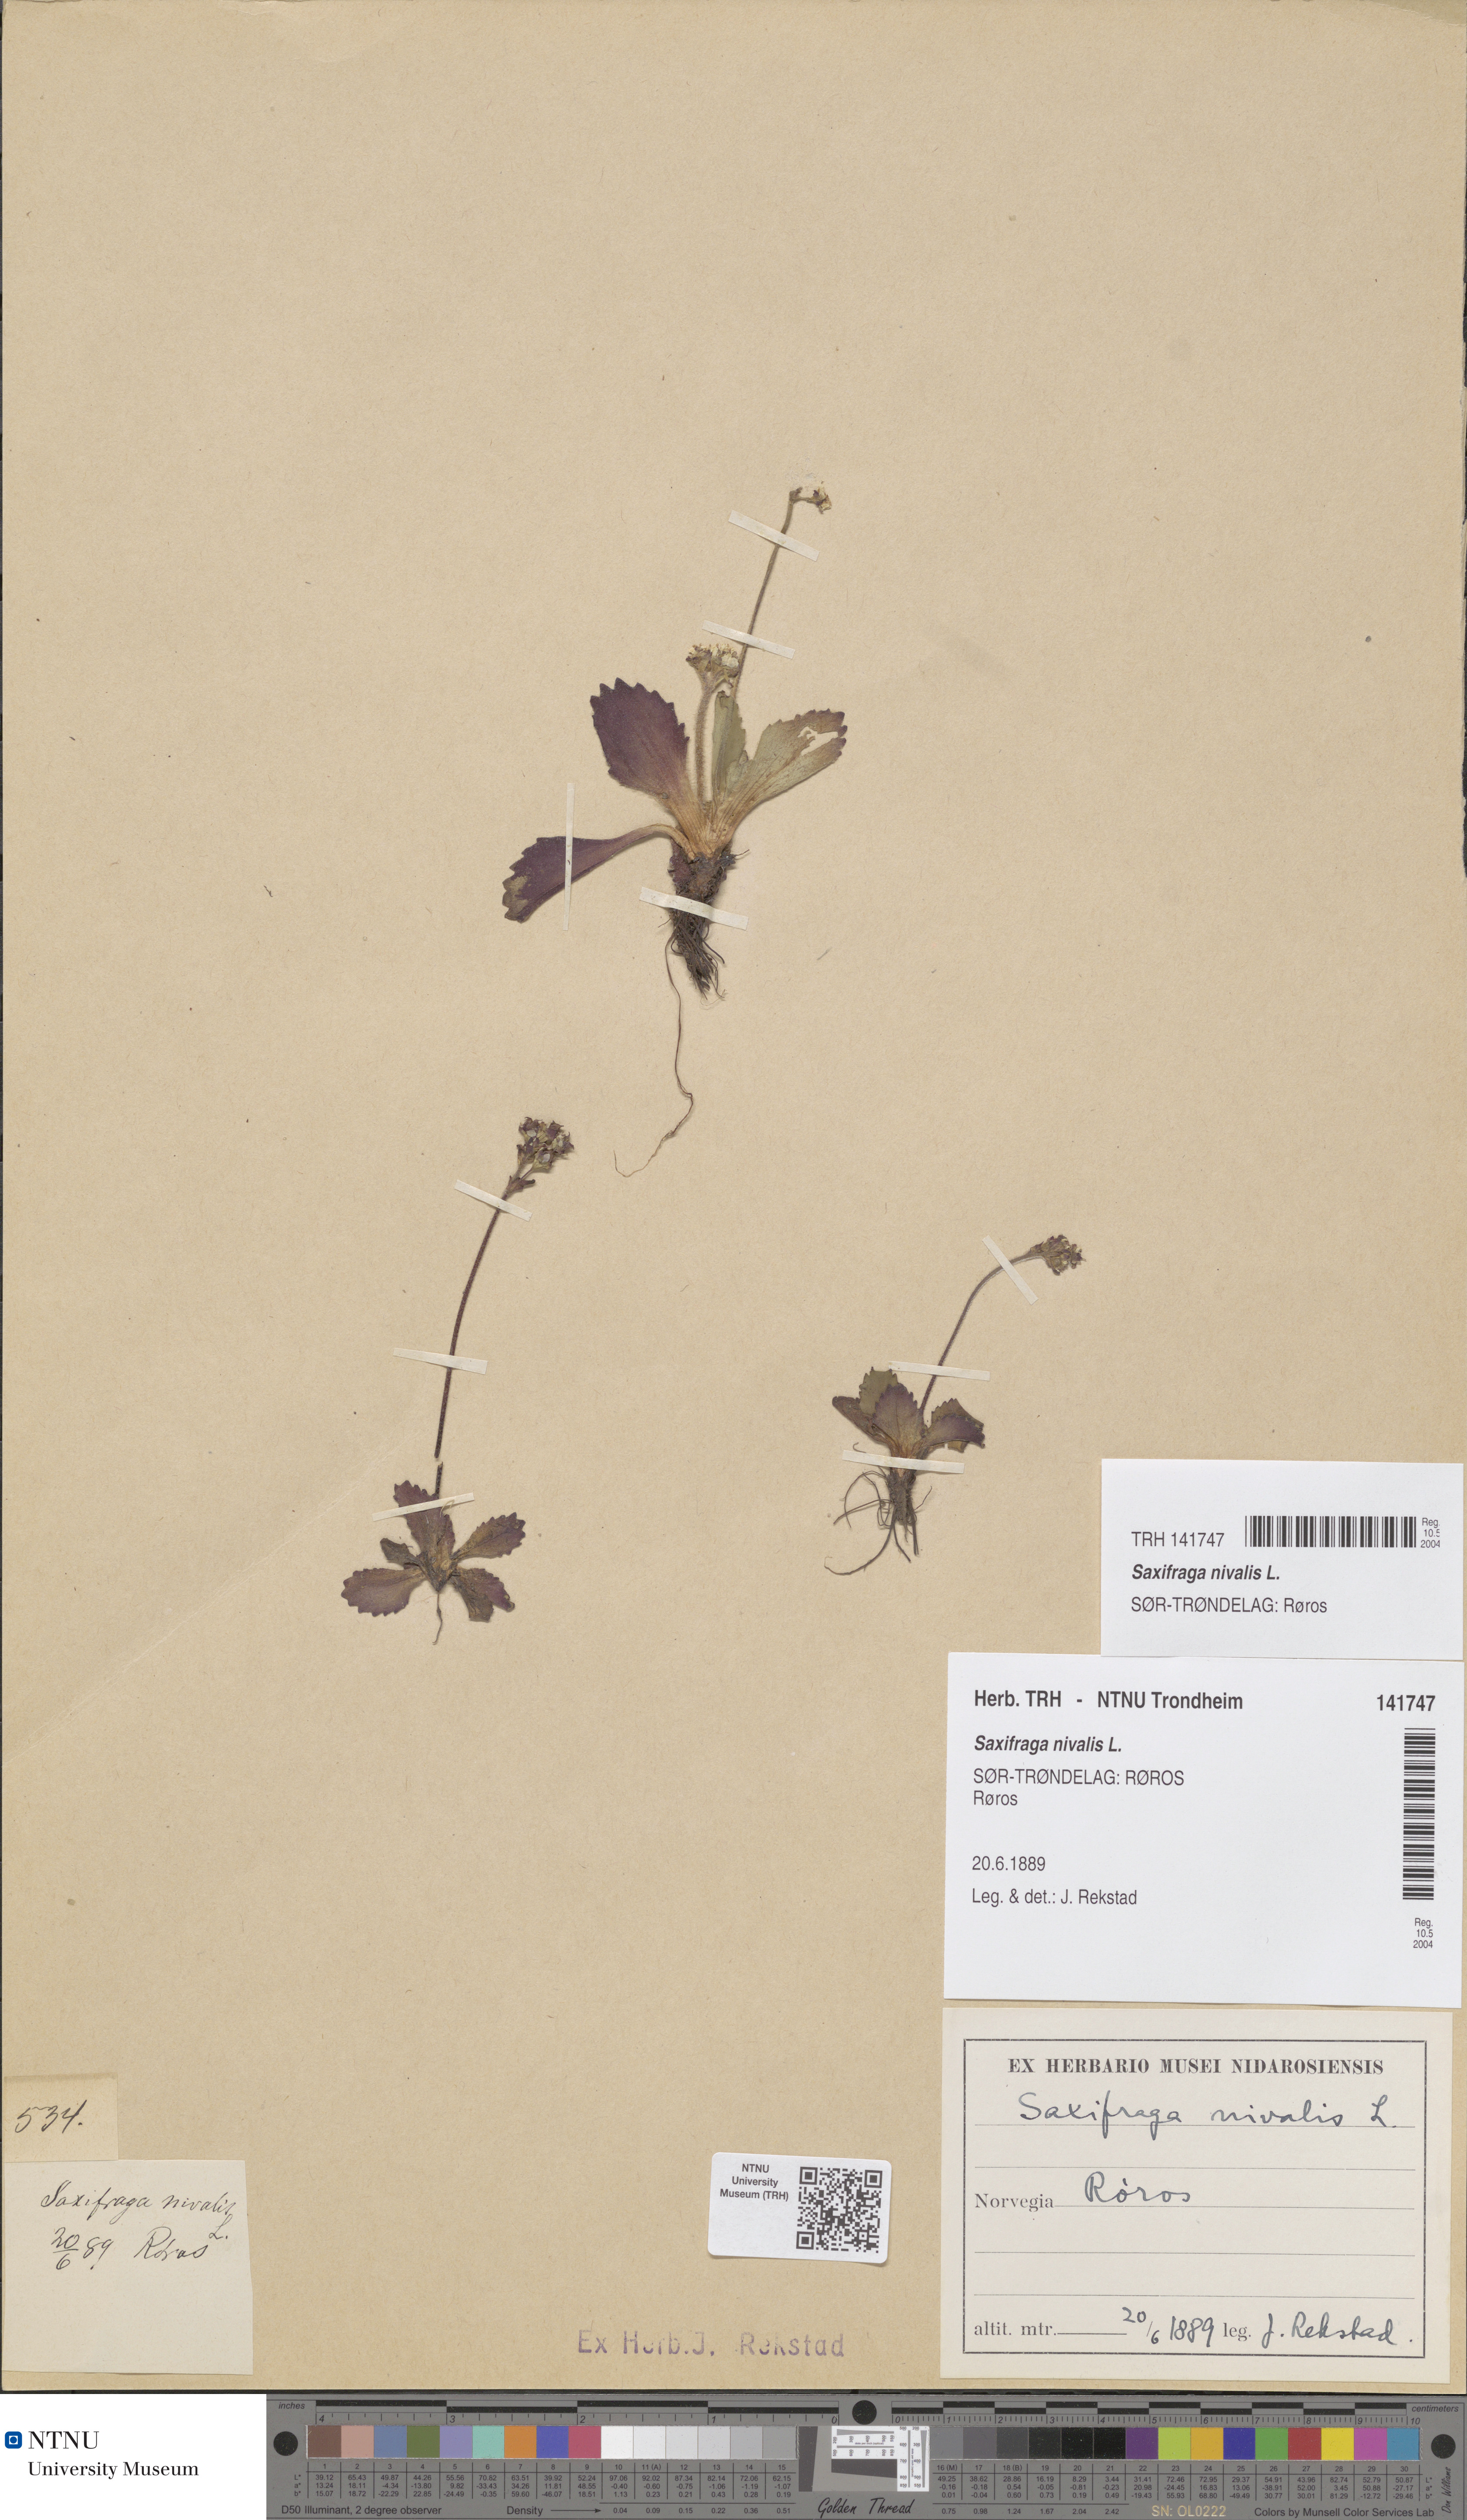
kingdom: Plantae
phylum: Tracheophyta
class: Magnoliopsida
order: Saxifragales
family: Saxifragaceae
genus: Micranthes
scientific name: Micranthes nivalis
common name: Alpine saxifrage
